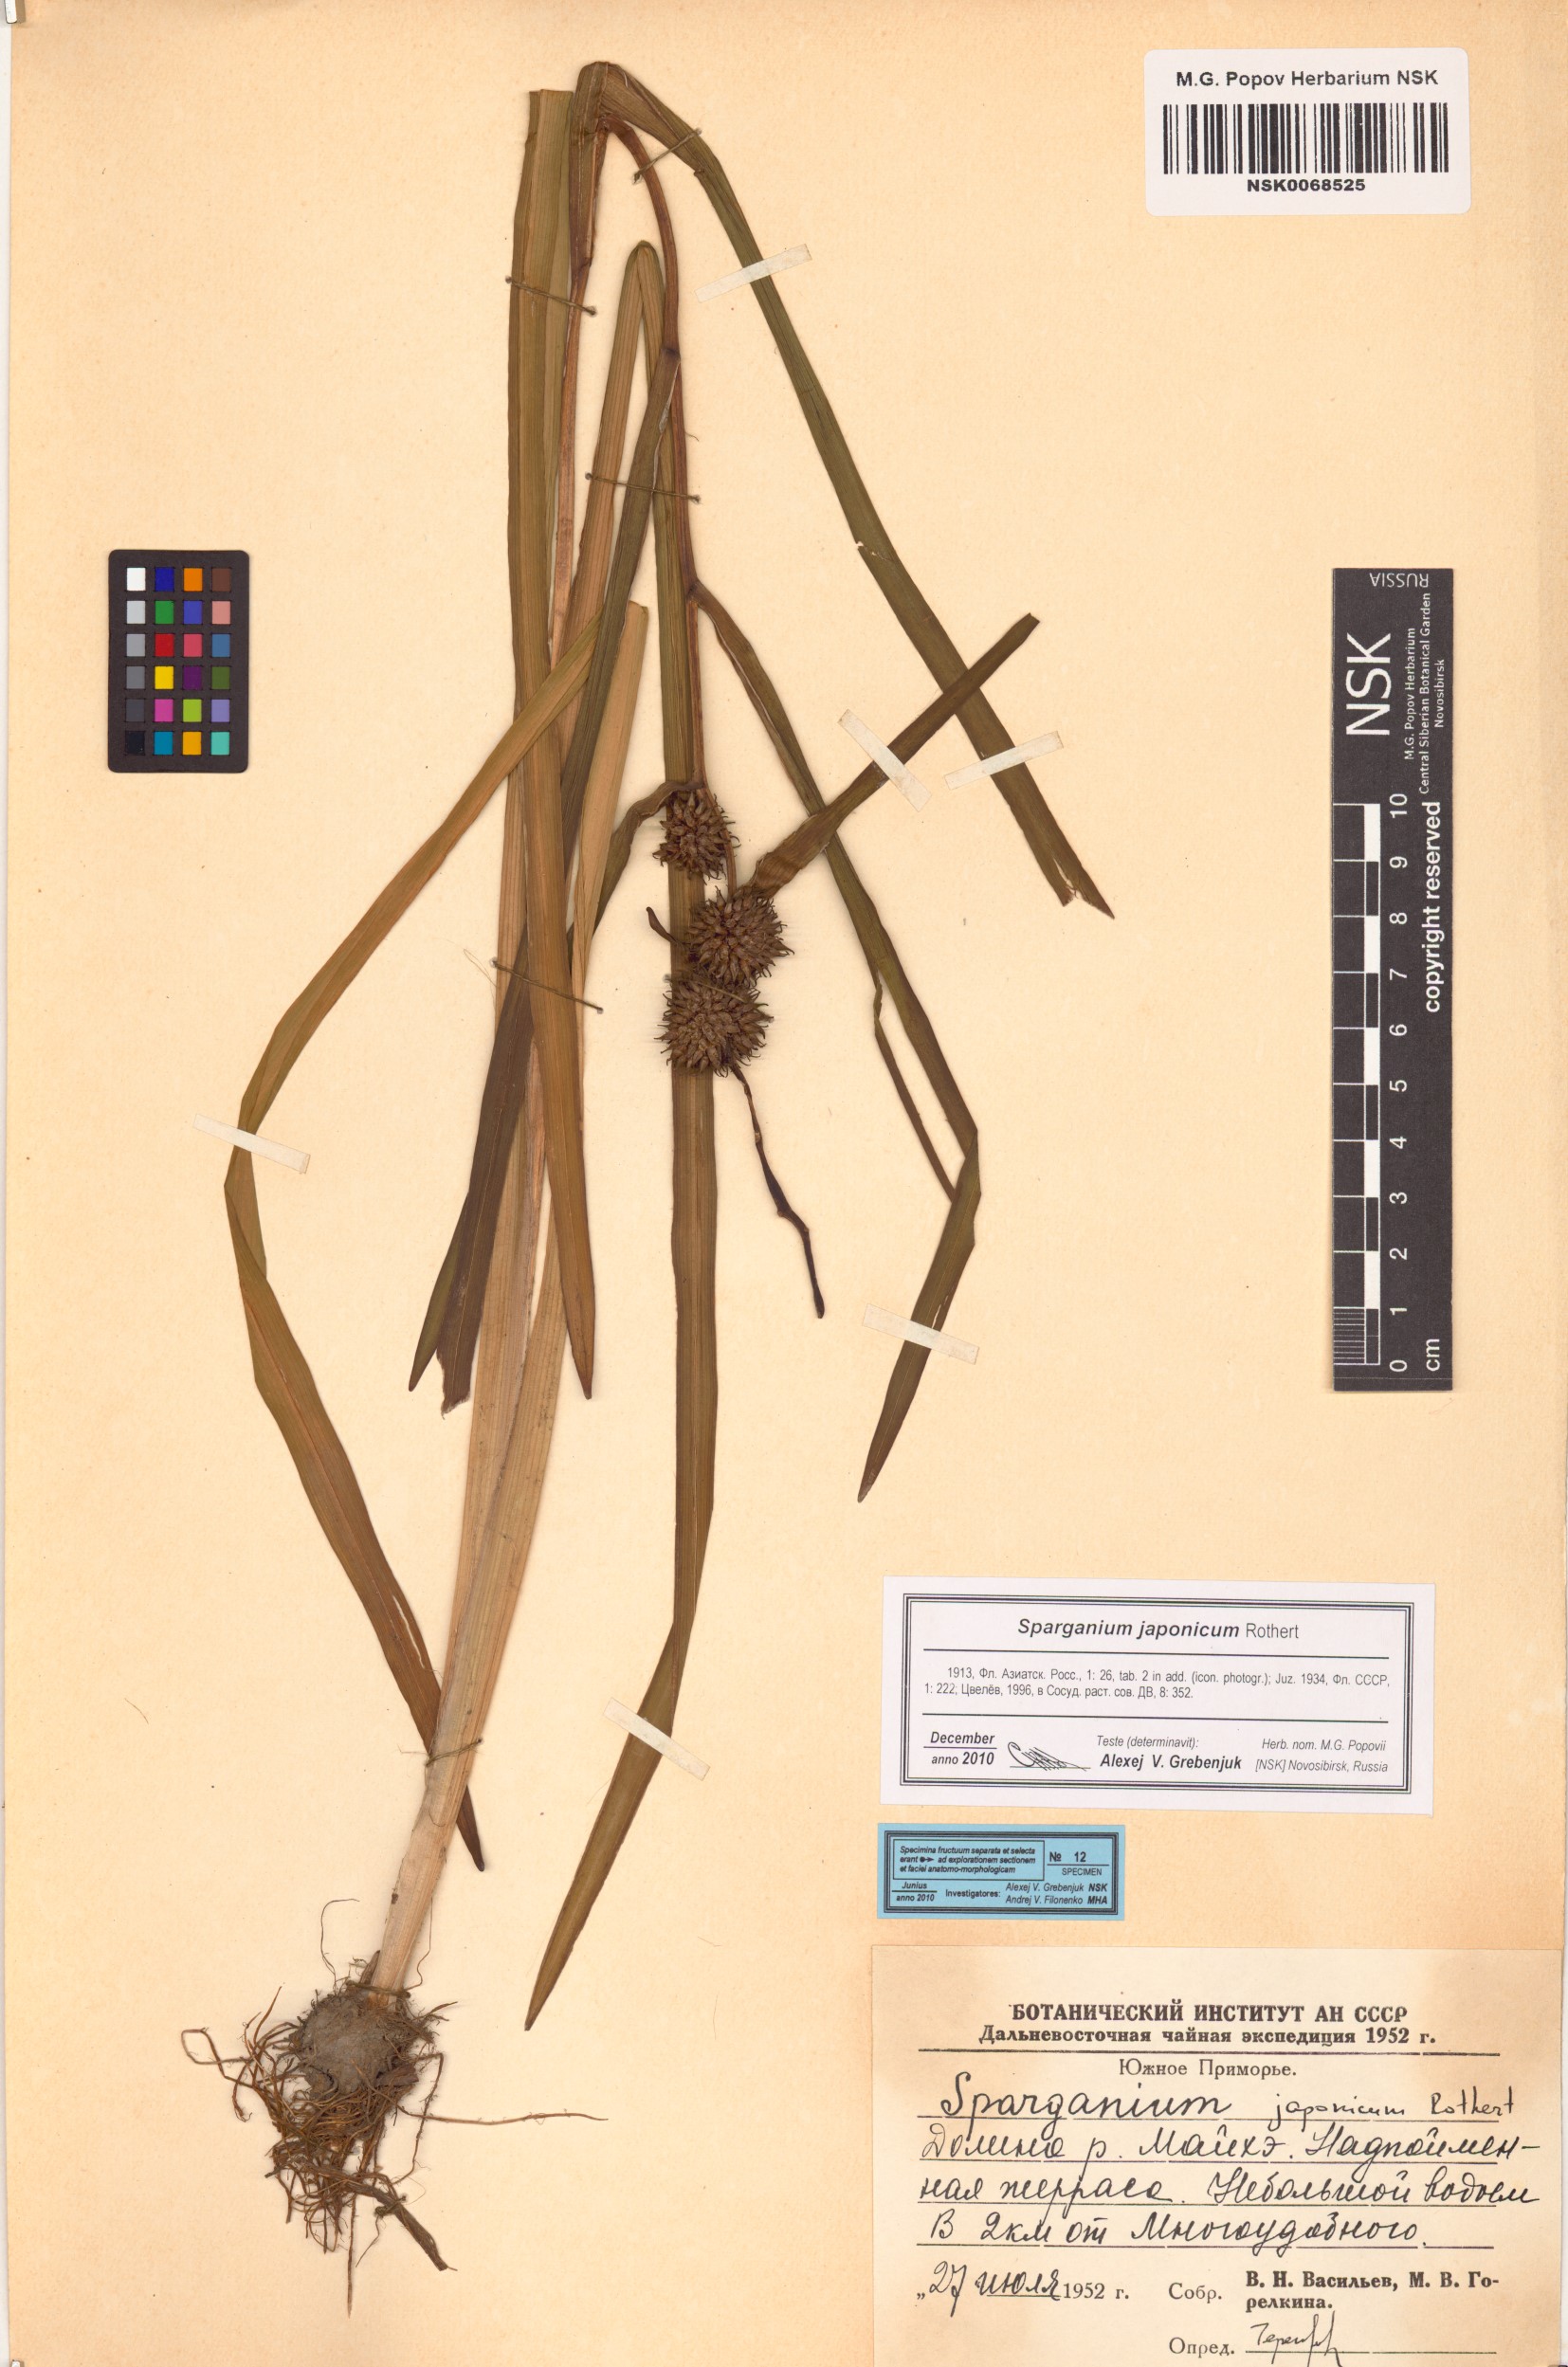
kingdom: Plantae
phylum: Tracheophyta
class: Liliopsida
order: Poales
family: Typhaceae
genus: Sparganium
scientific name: Sparganium japonicum
